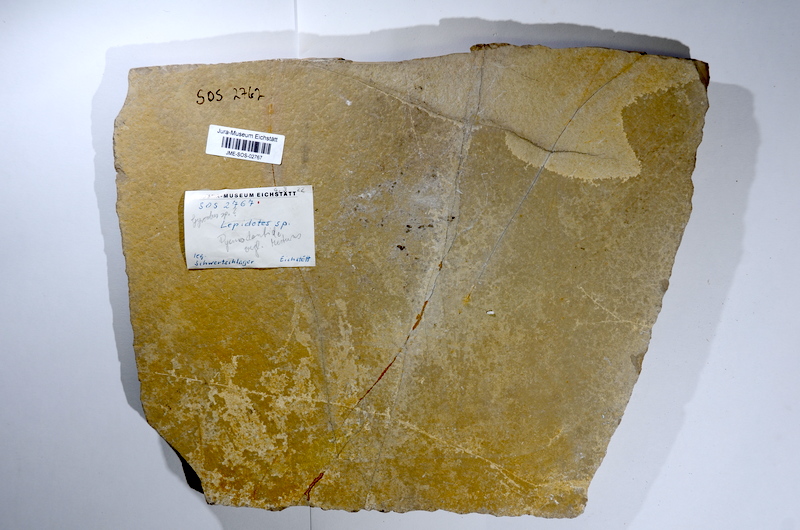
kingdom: Animalia
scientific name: Animalia
